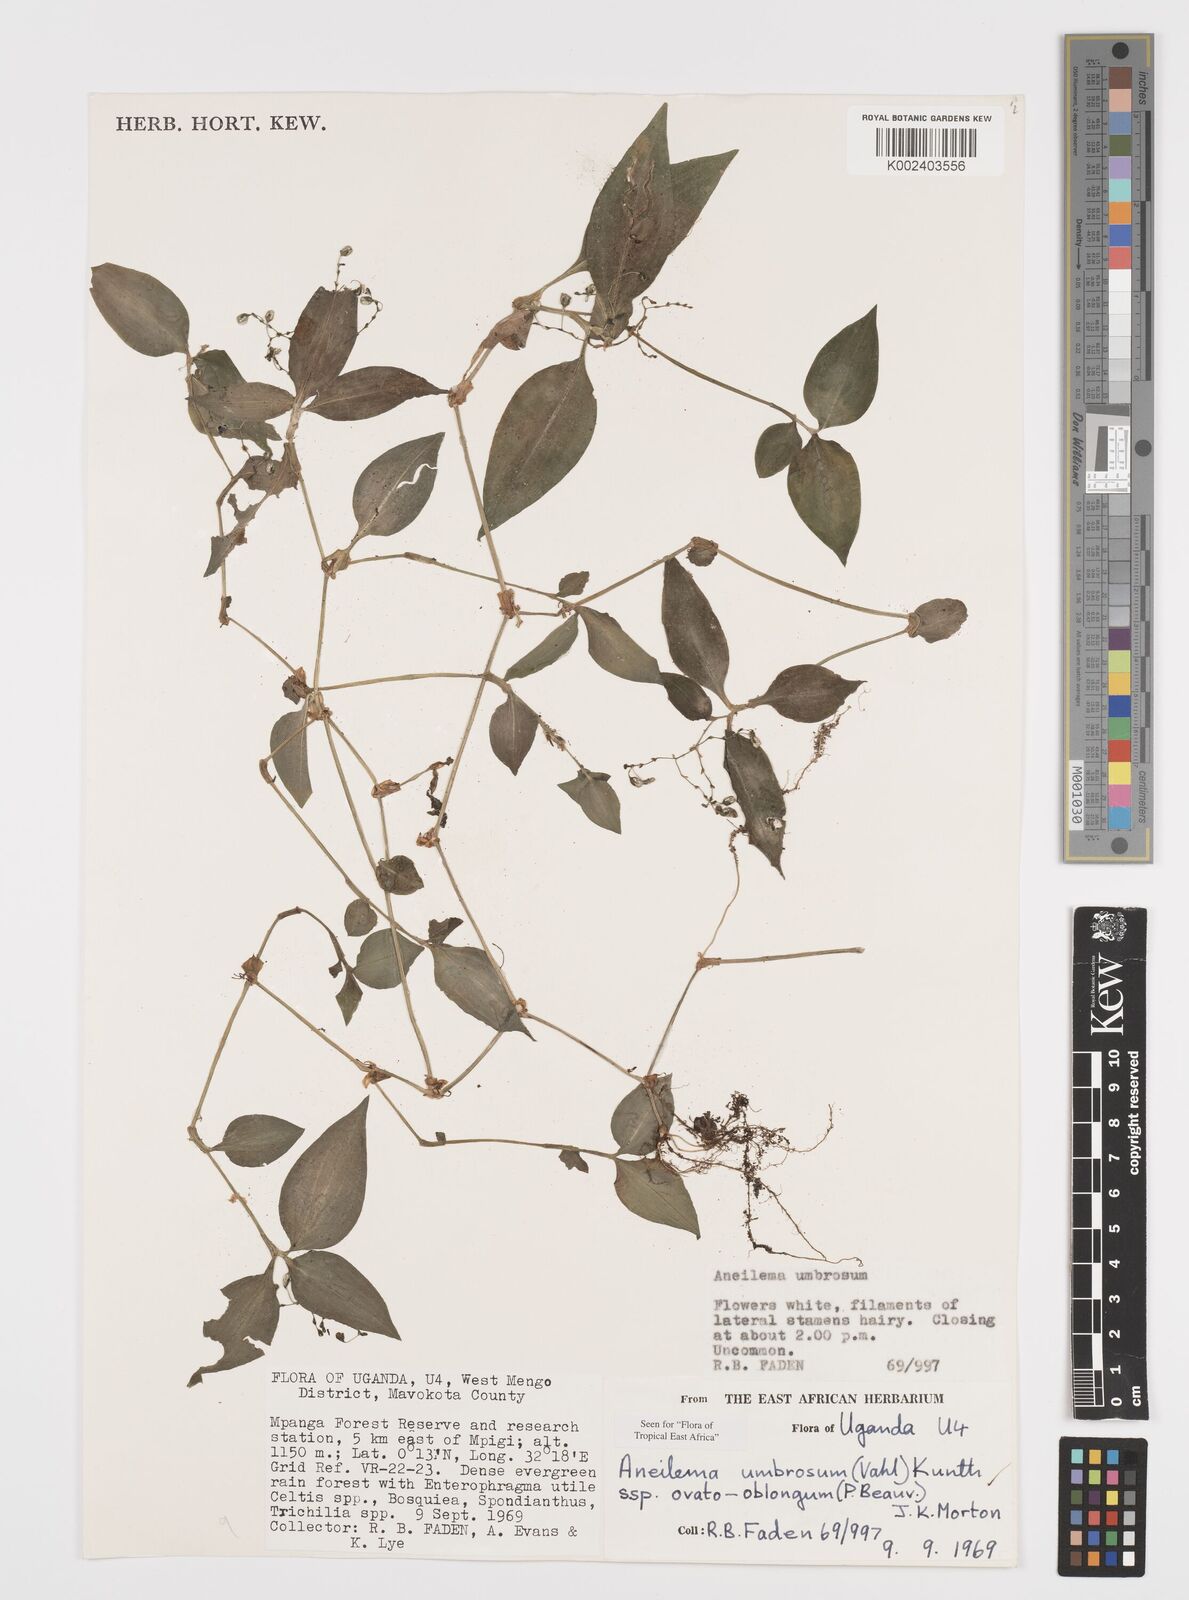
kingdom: Plantae
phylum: Tracheophyta
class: Liliopsida
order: Commelinales
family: Commelinaceae
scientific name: Commelinaceae
